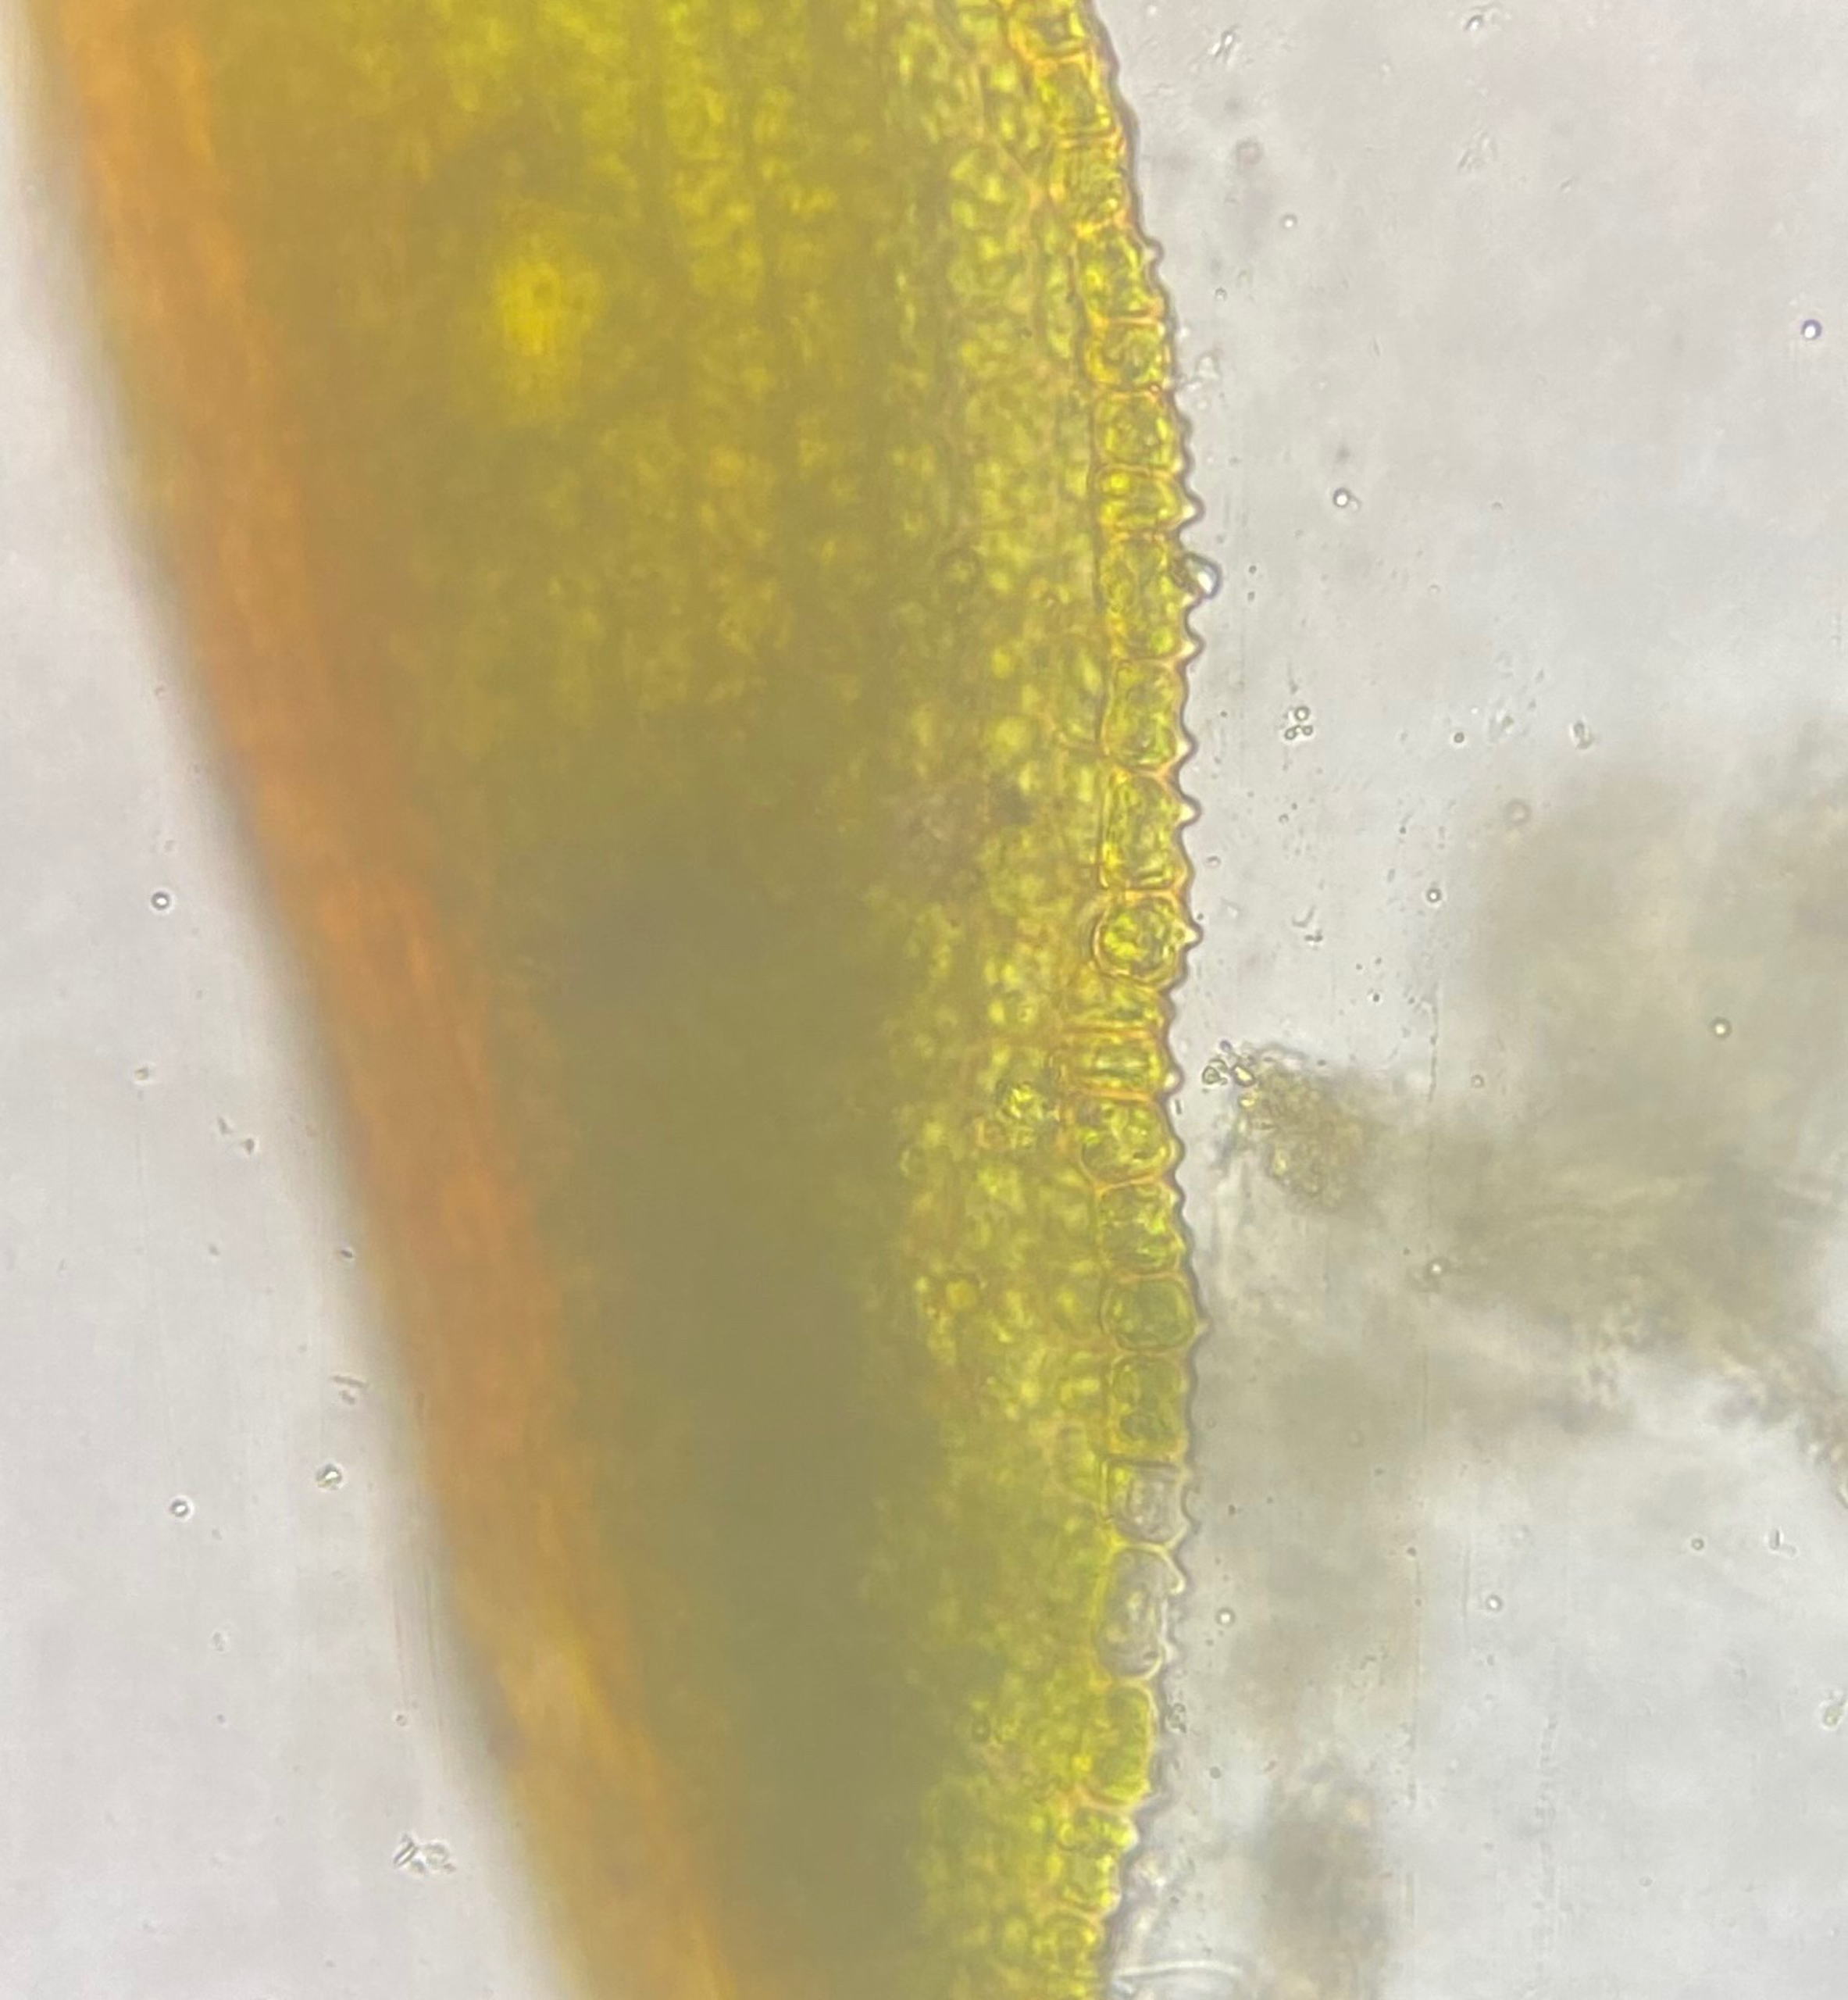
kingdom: Plantae
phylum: Bryophyta
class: Bryopsida
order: Pottiales
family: Pottiaceae
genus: Microbryum
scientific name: Microbryum davallianum
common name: Roset-småmos
